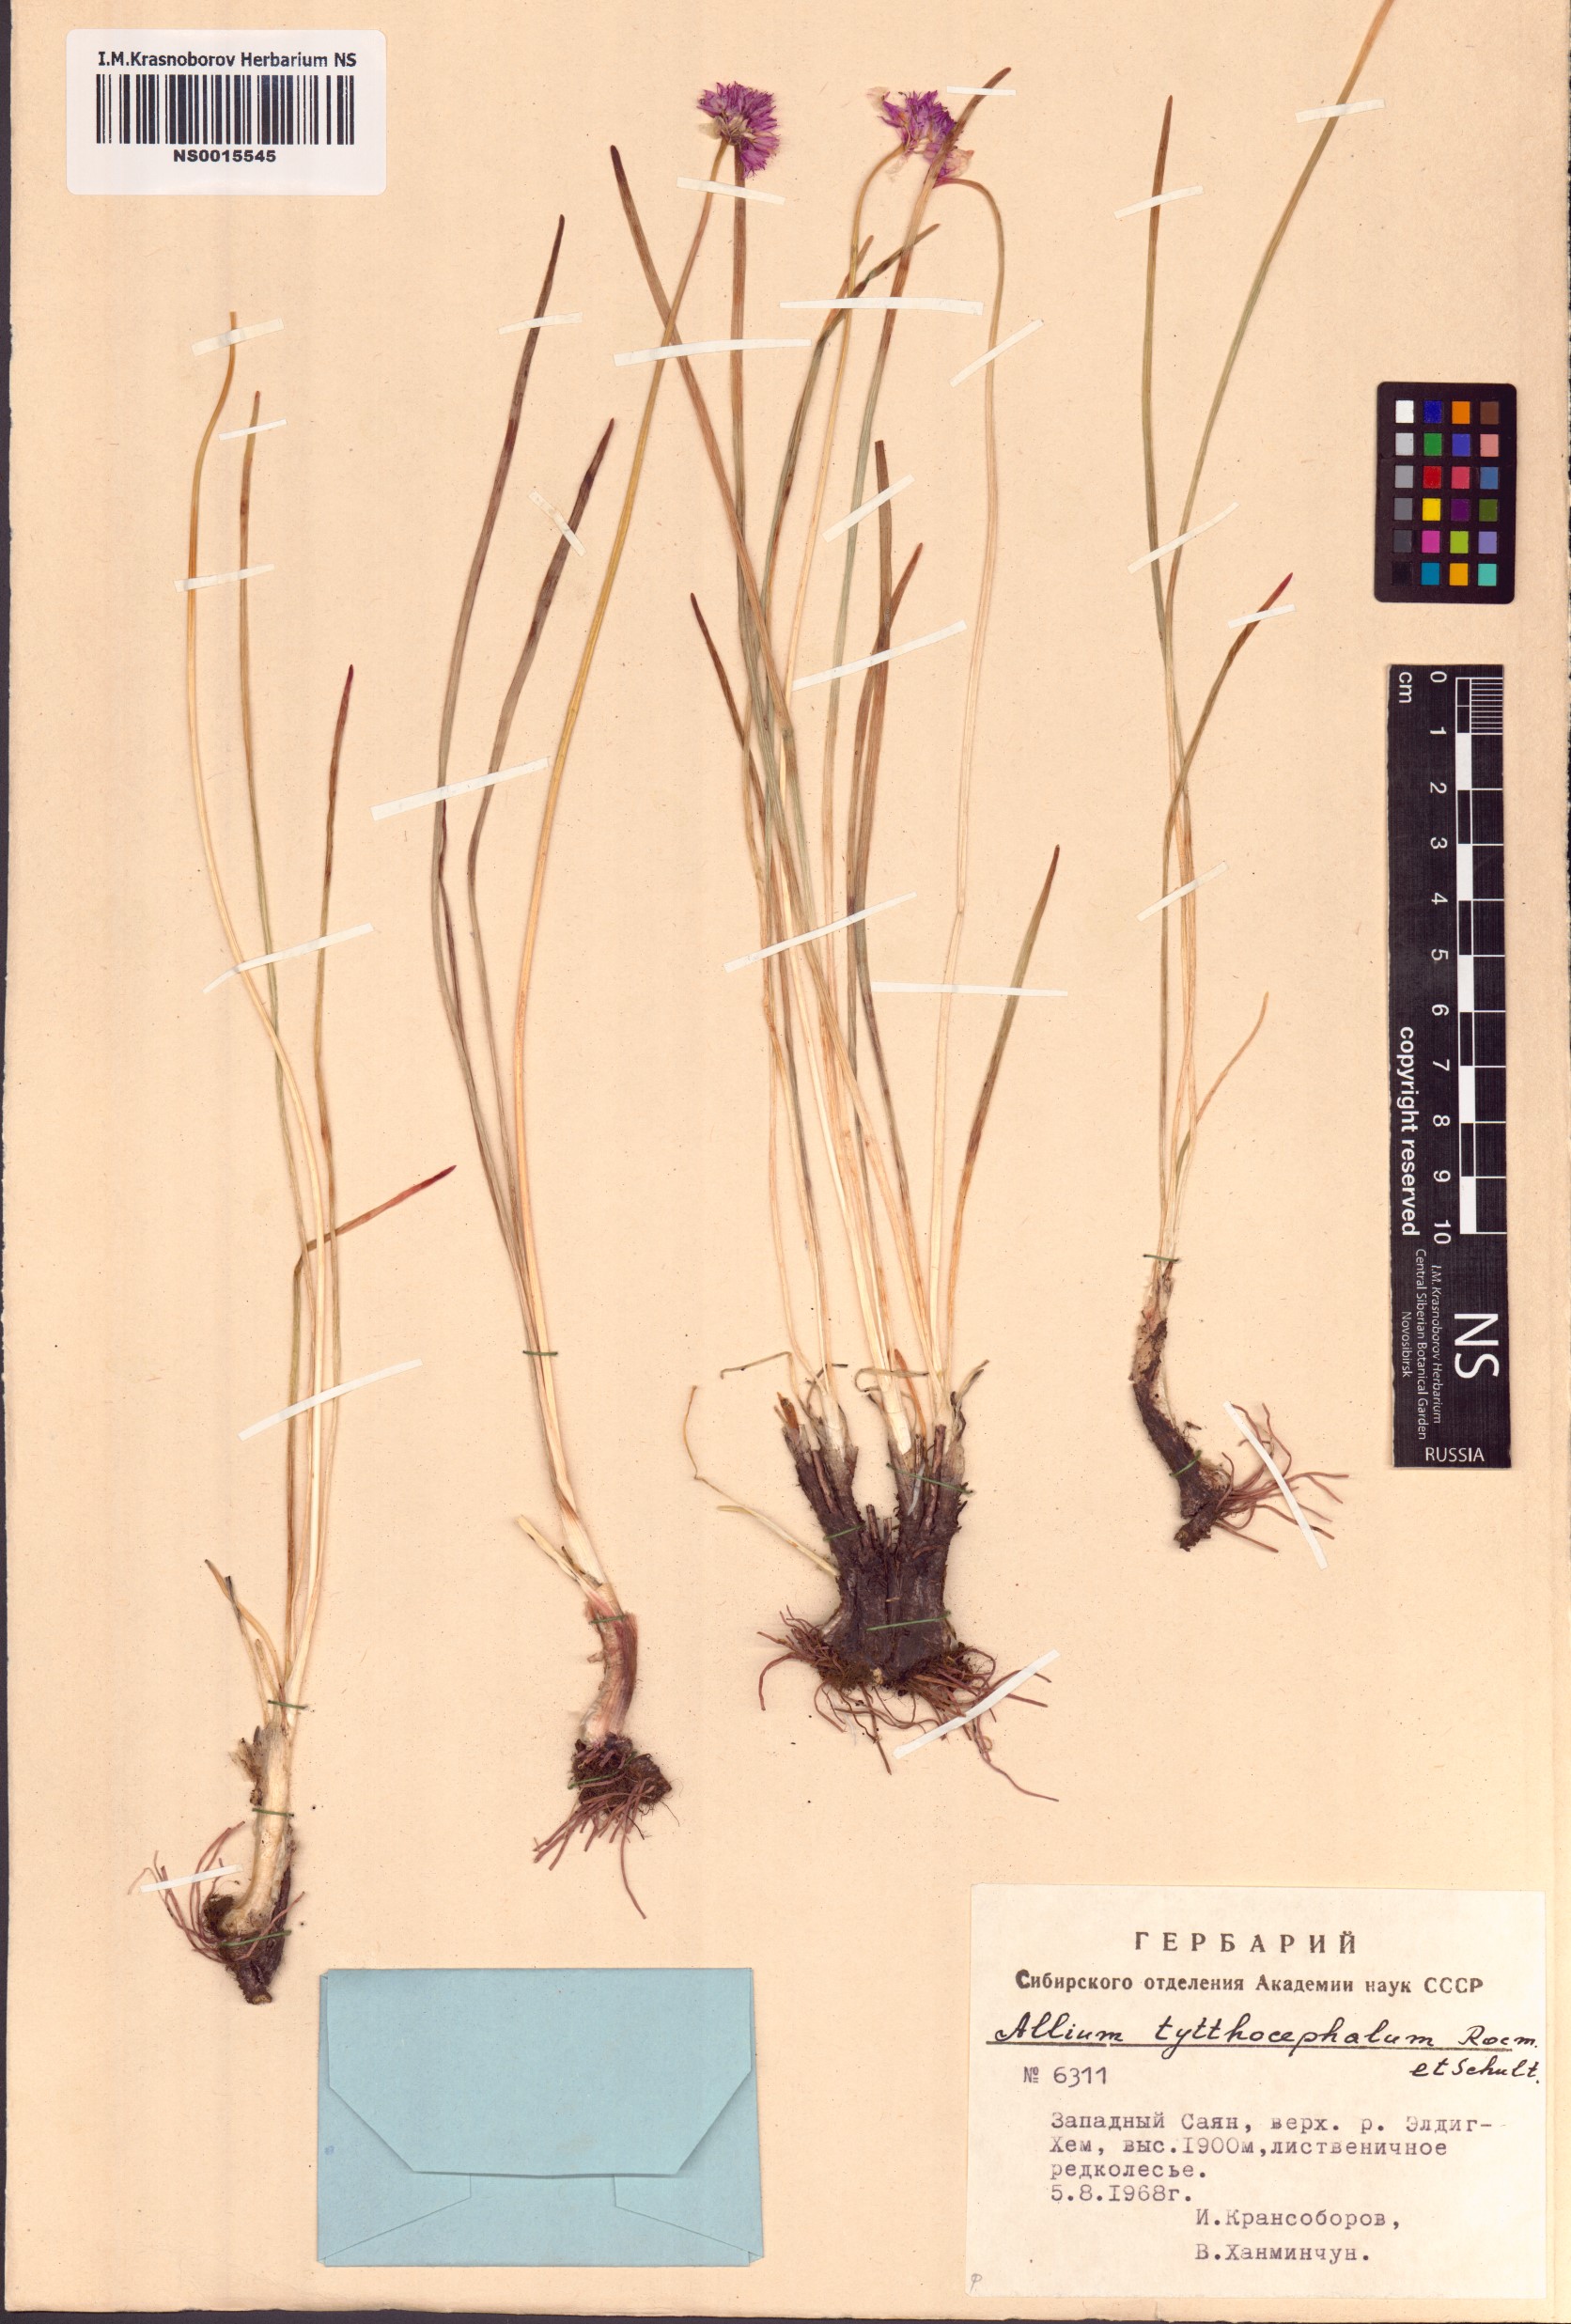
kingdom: Plantae
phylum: Tracheophyta
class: Liliopsida
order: Asparagales
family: Amaryllidaceae
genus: Allium
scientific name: Allium tytthocephalum
